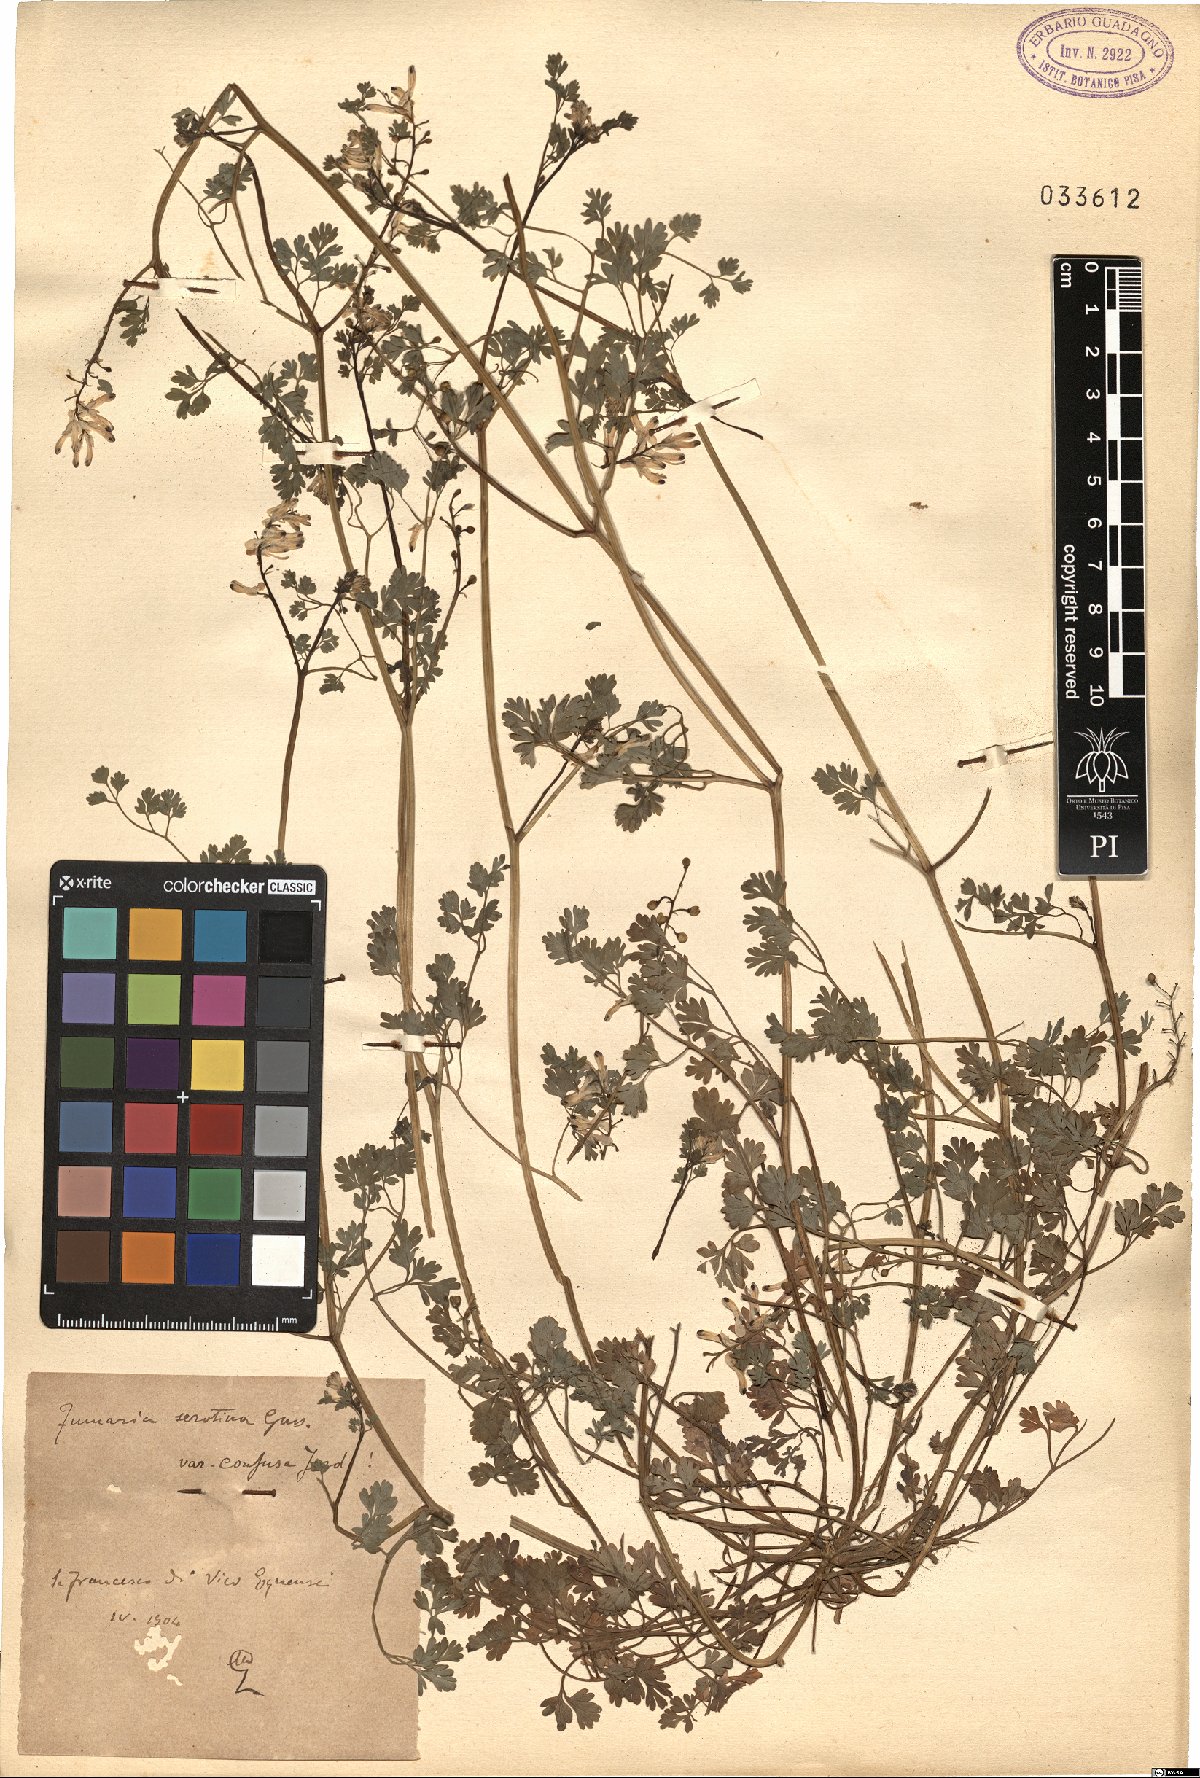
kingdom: Plantae
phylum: Tracheophyta
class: Magnoliopsida
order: Ranunculales
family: Papaveraceae
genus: Fumaria
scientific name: Fumaria bastardii
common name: Tall ramping-fumitory
